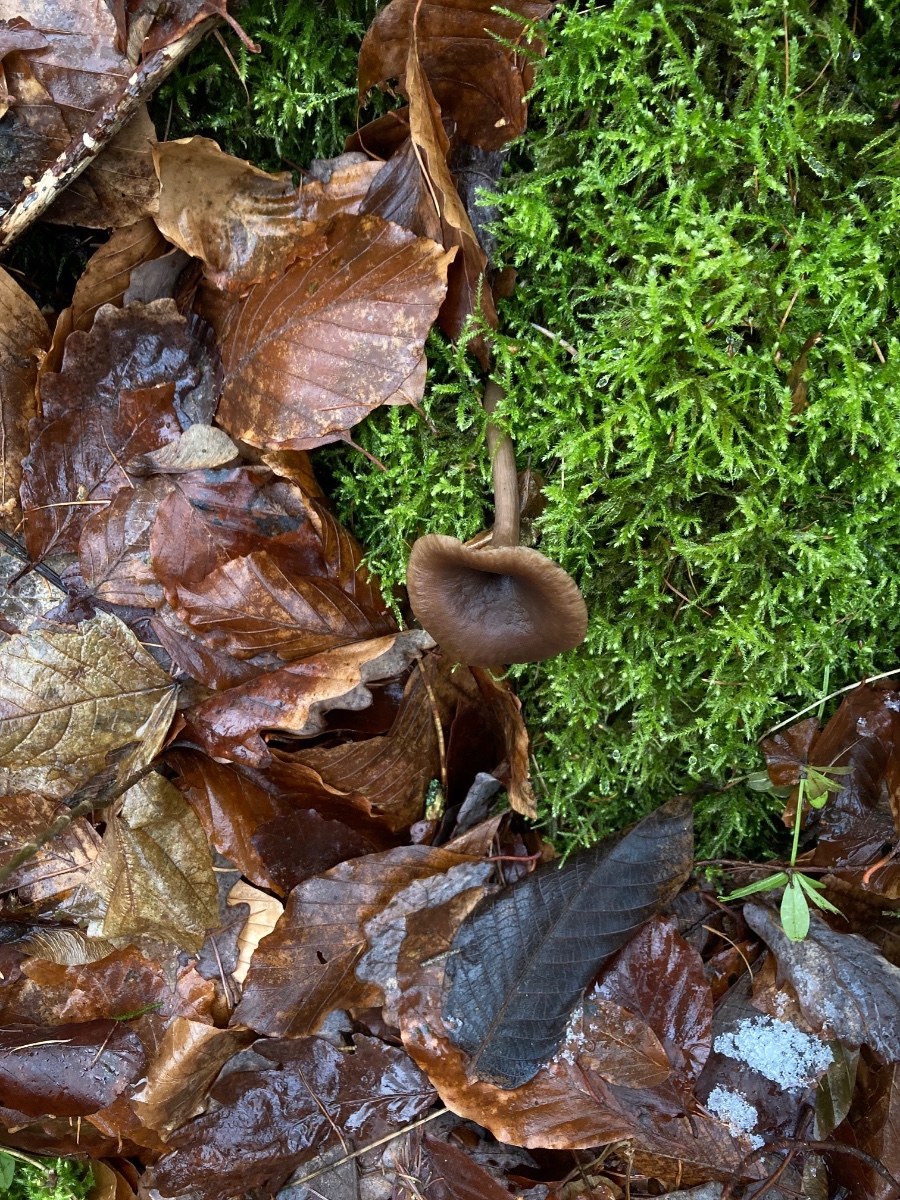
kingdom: Fungi
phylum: Basidiomycota
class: Agaricomycetes
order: Agaricales
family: Pseudoclitocybaceae
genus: Pseudoclitocybe
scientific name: Pseudoclitocybe cyathiformis
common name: almindelig bægertragthat
